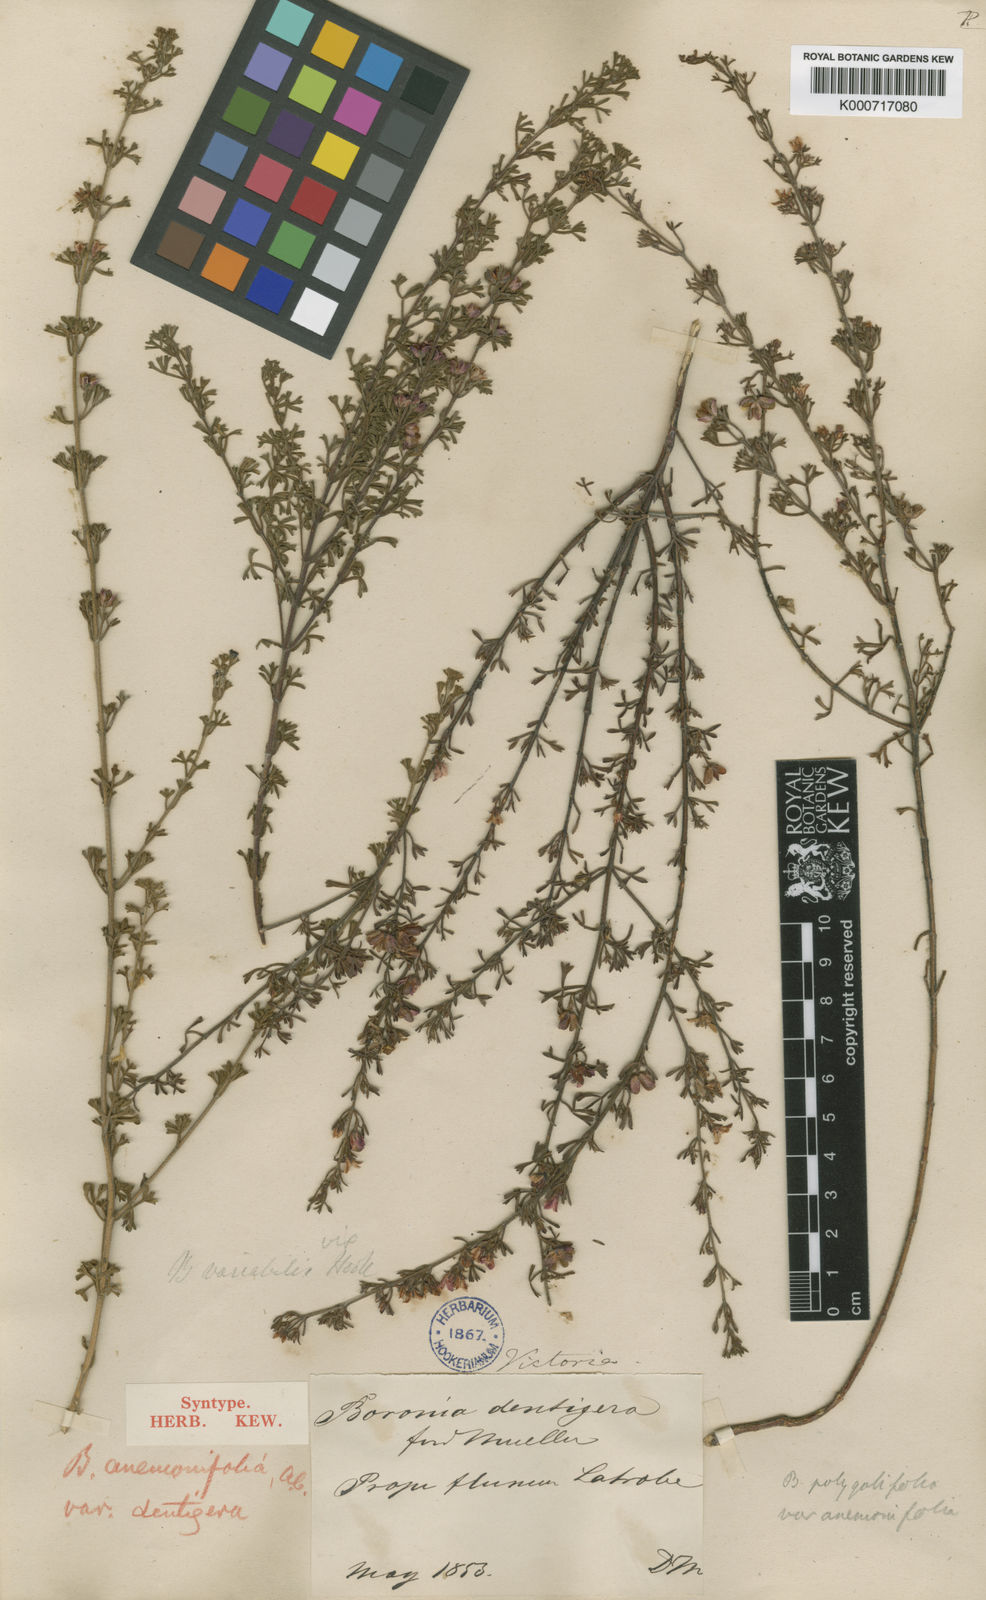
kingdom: Plantae
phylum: Tracheophyta
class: Magnoliopsida
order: Sapindales
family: Rutaceae
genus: Cyanothamnus
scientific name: Cyanothamnus anemonifolius
